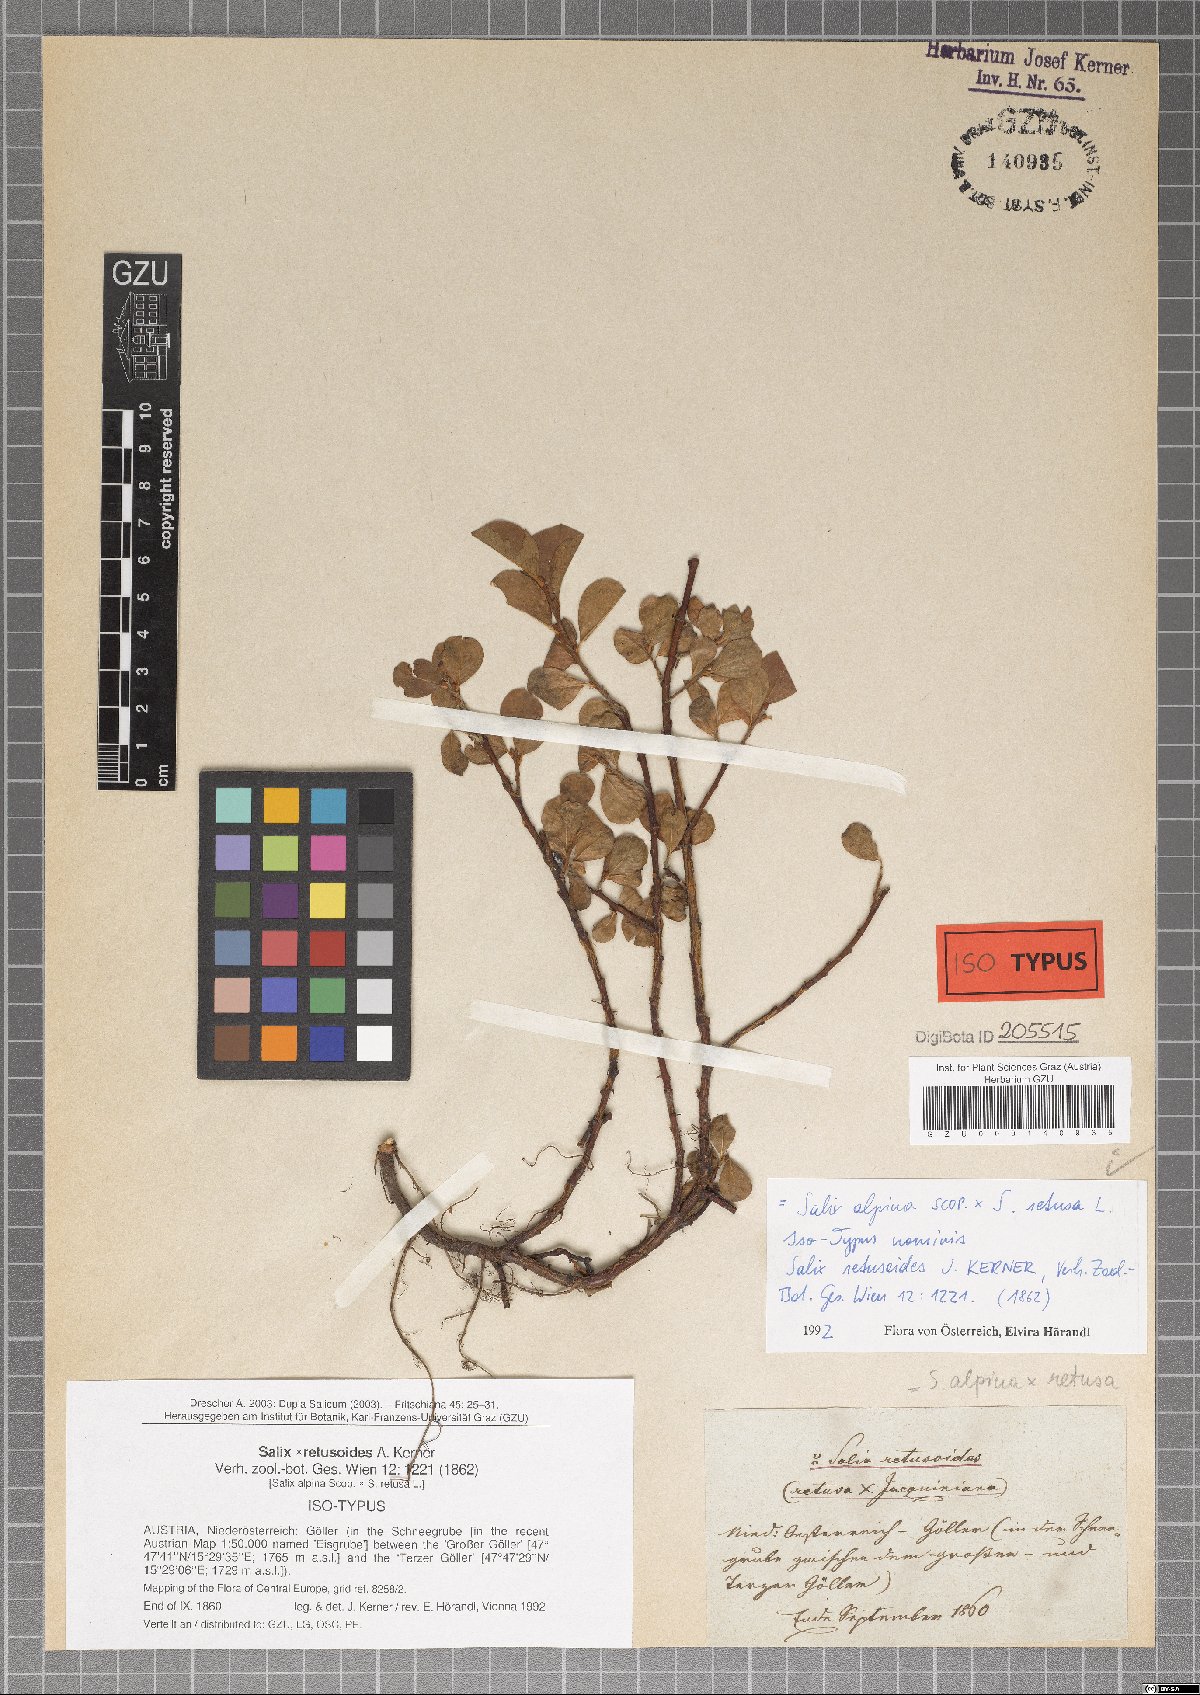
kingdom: Plantae
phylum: Tracheophyta
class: Magnoliopsida
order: Malpighiales
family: Salicaceae
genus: Salix
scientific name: Salix retusoides
